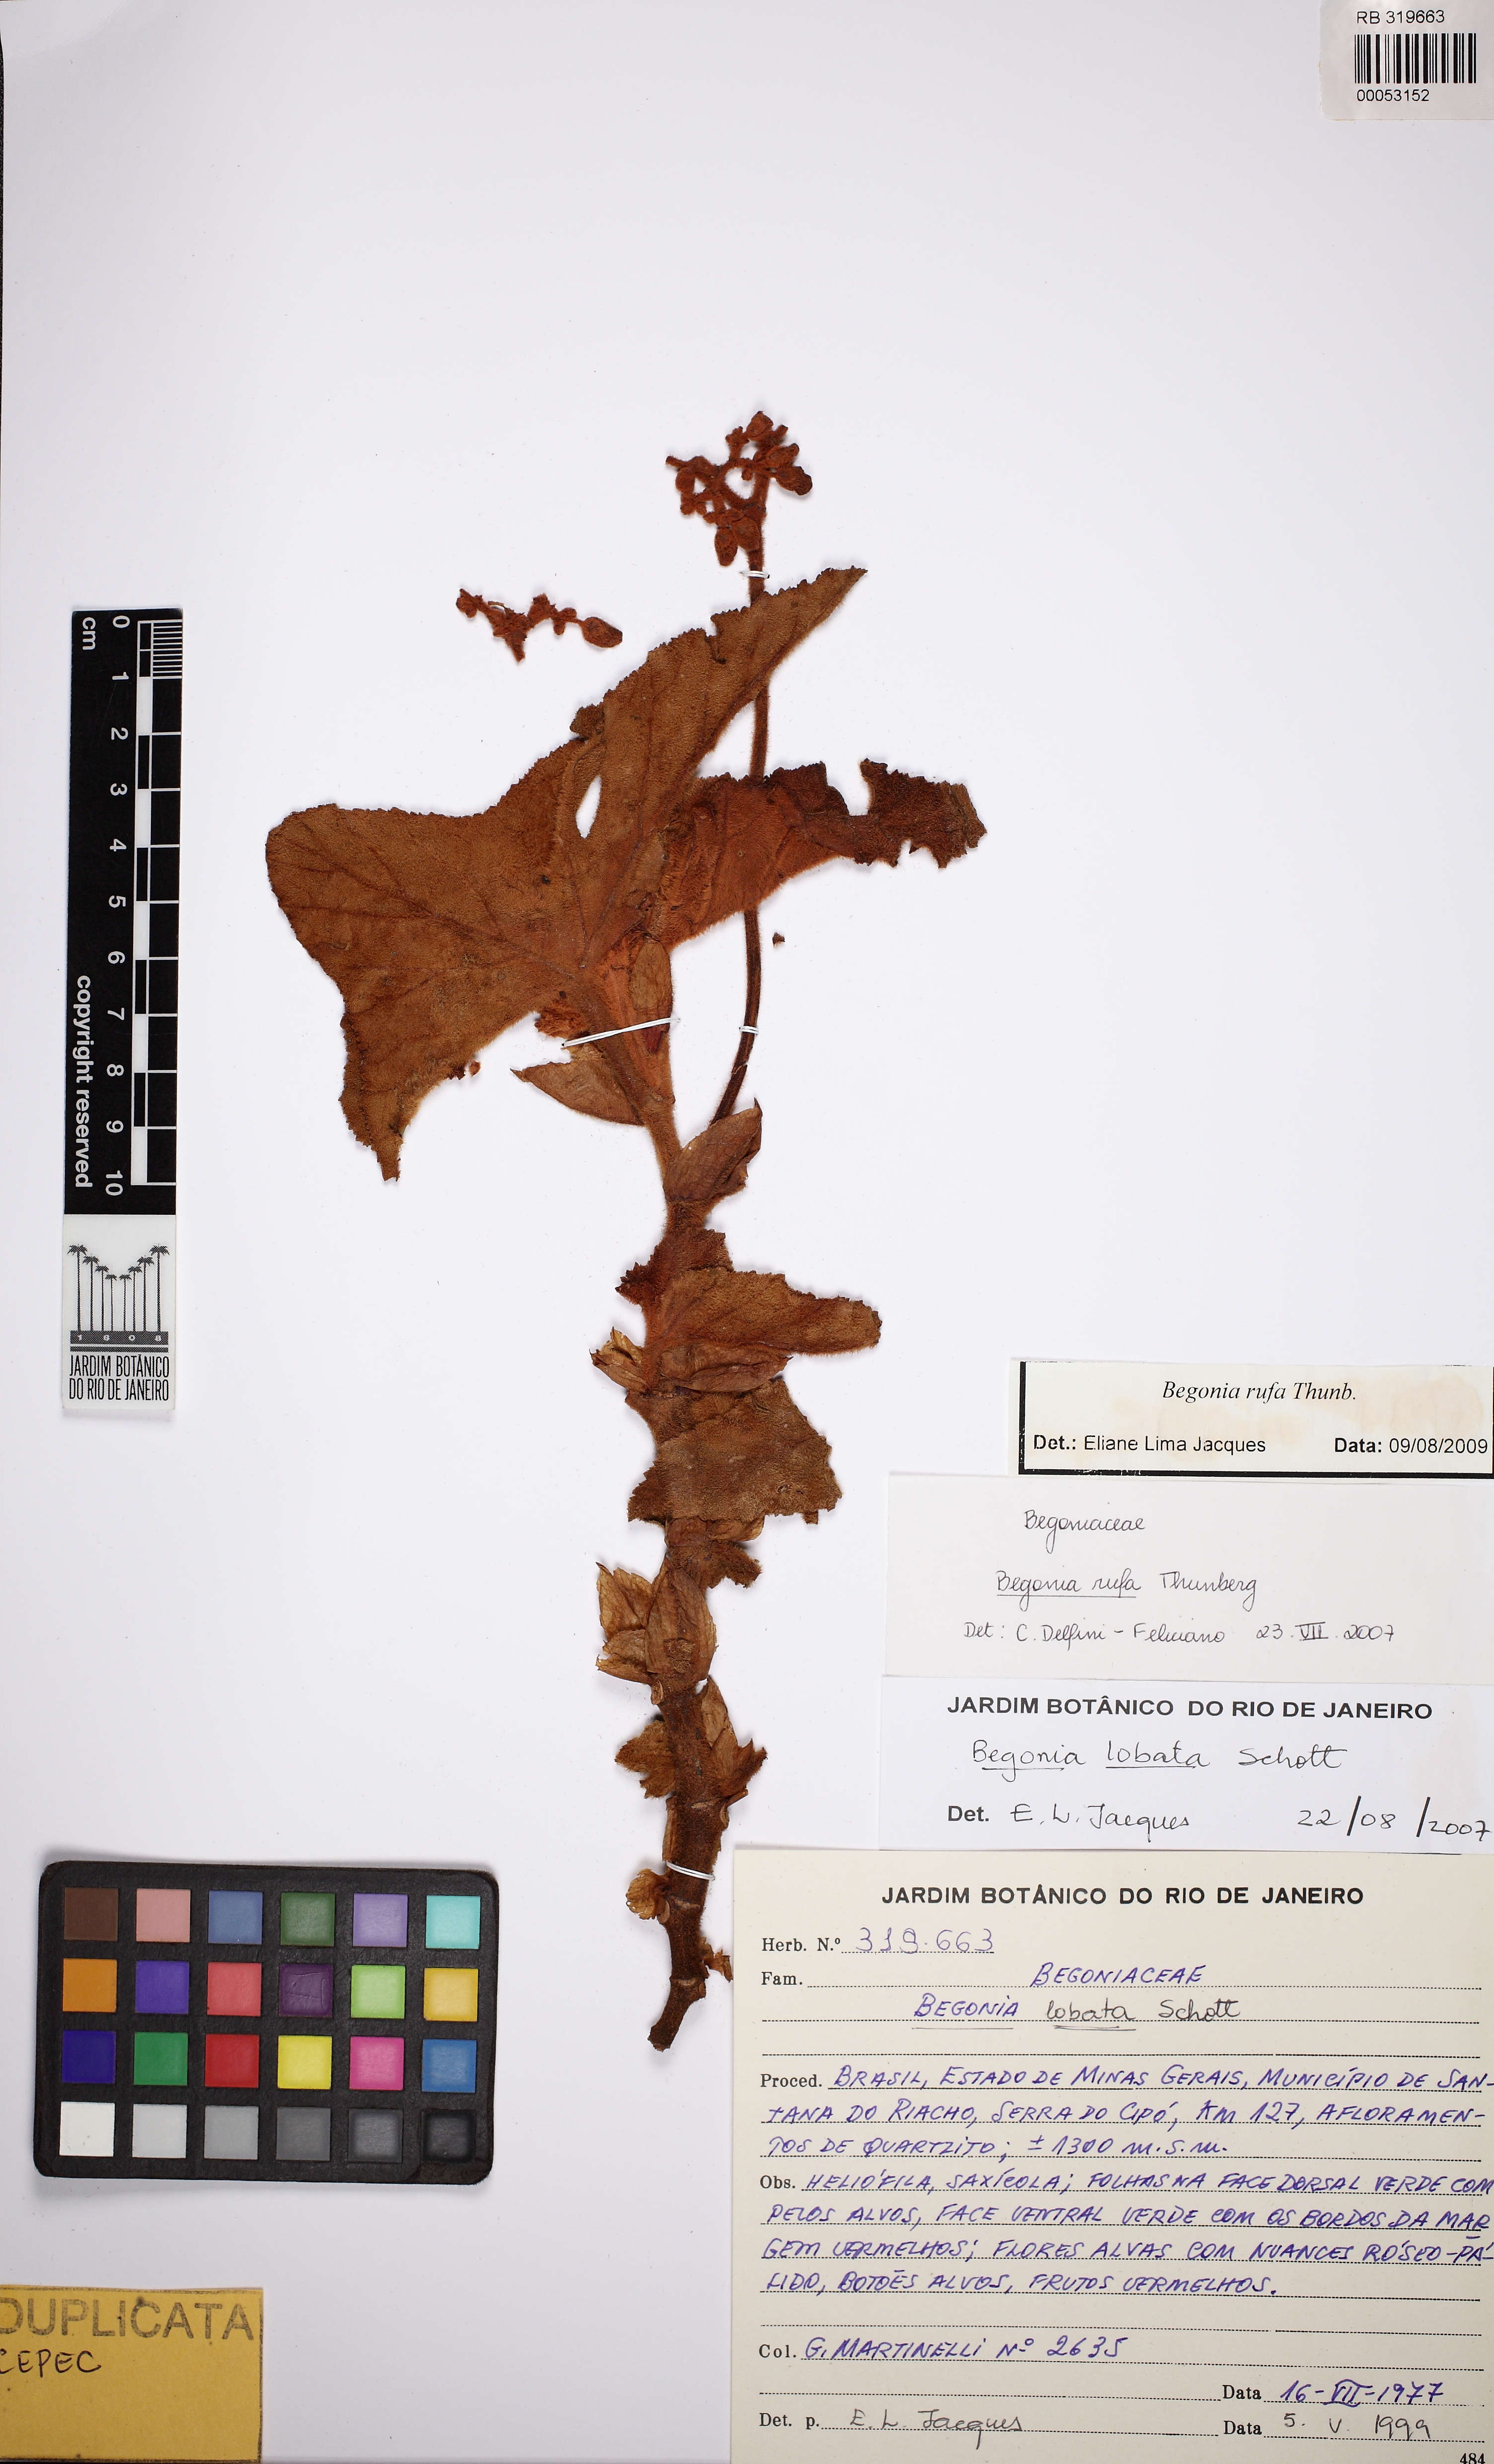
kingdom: Plantae
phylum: Tracheophyta
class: Magnoliopsida
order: Cucurbitales
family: Begoniaceae
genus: Begonia
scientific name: Begonia rufa
